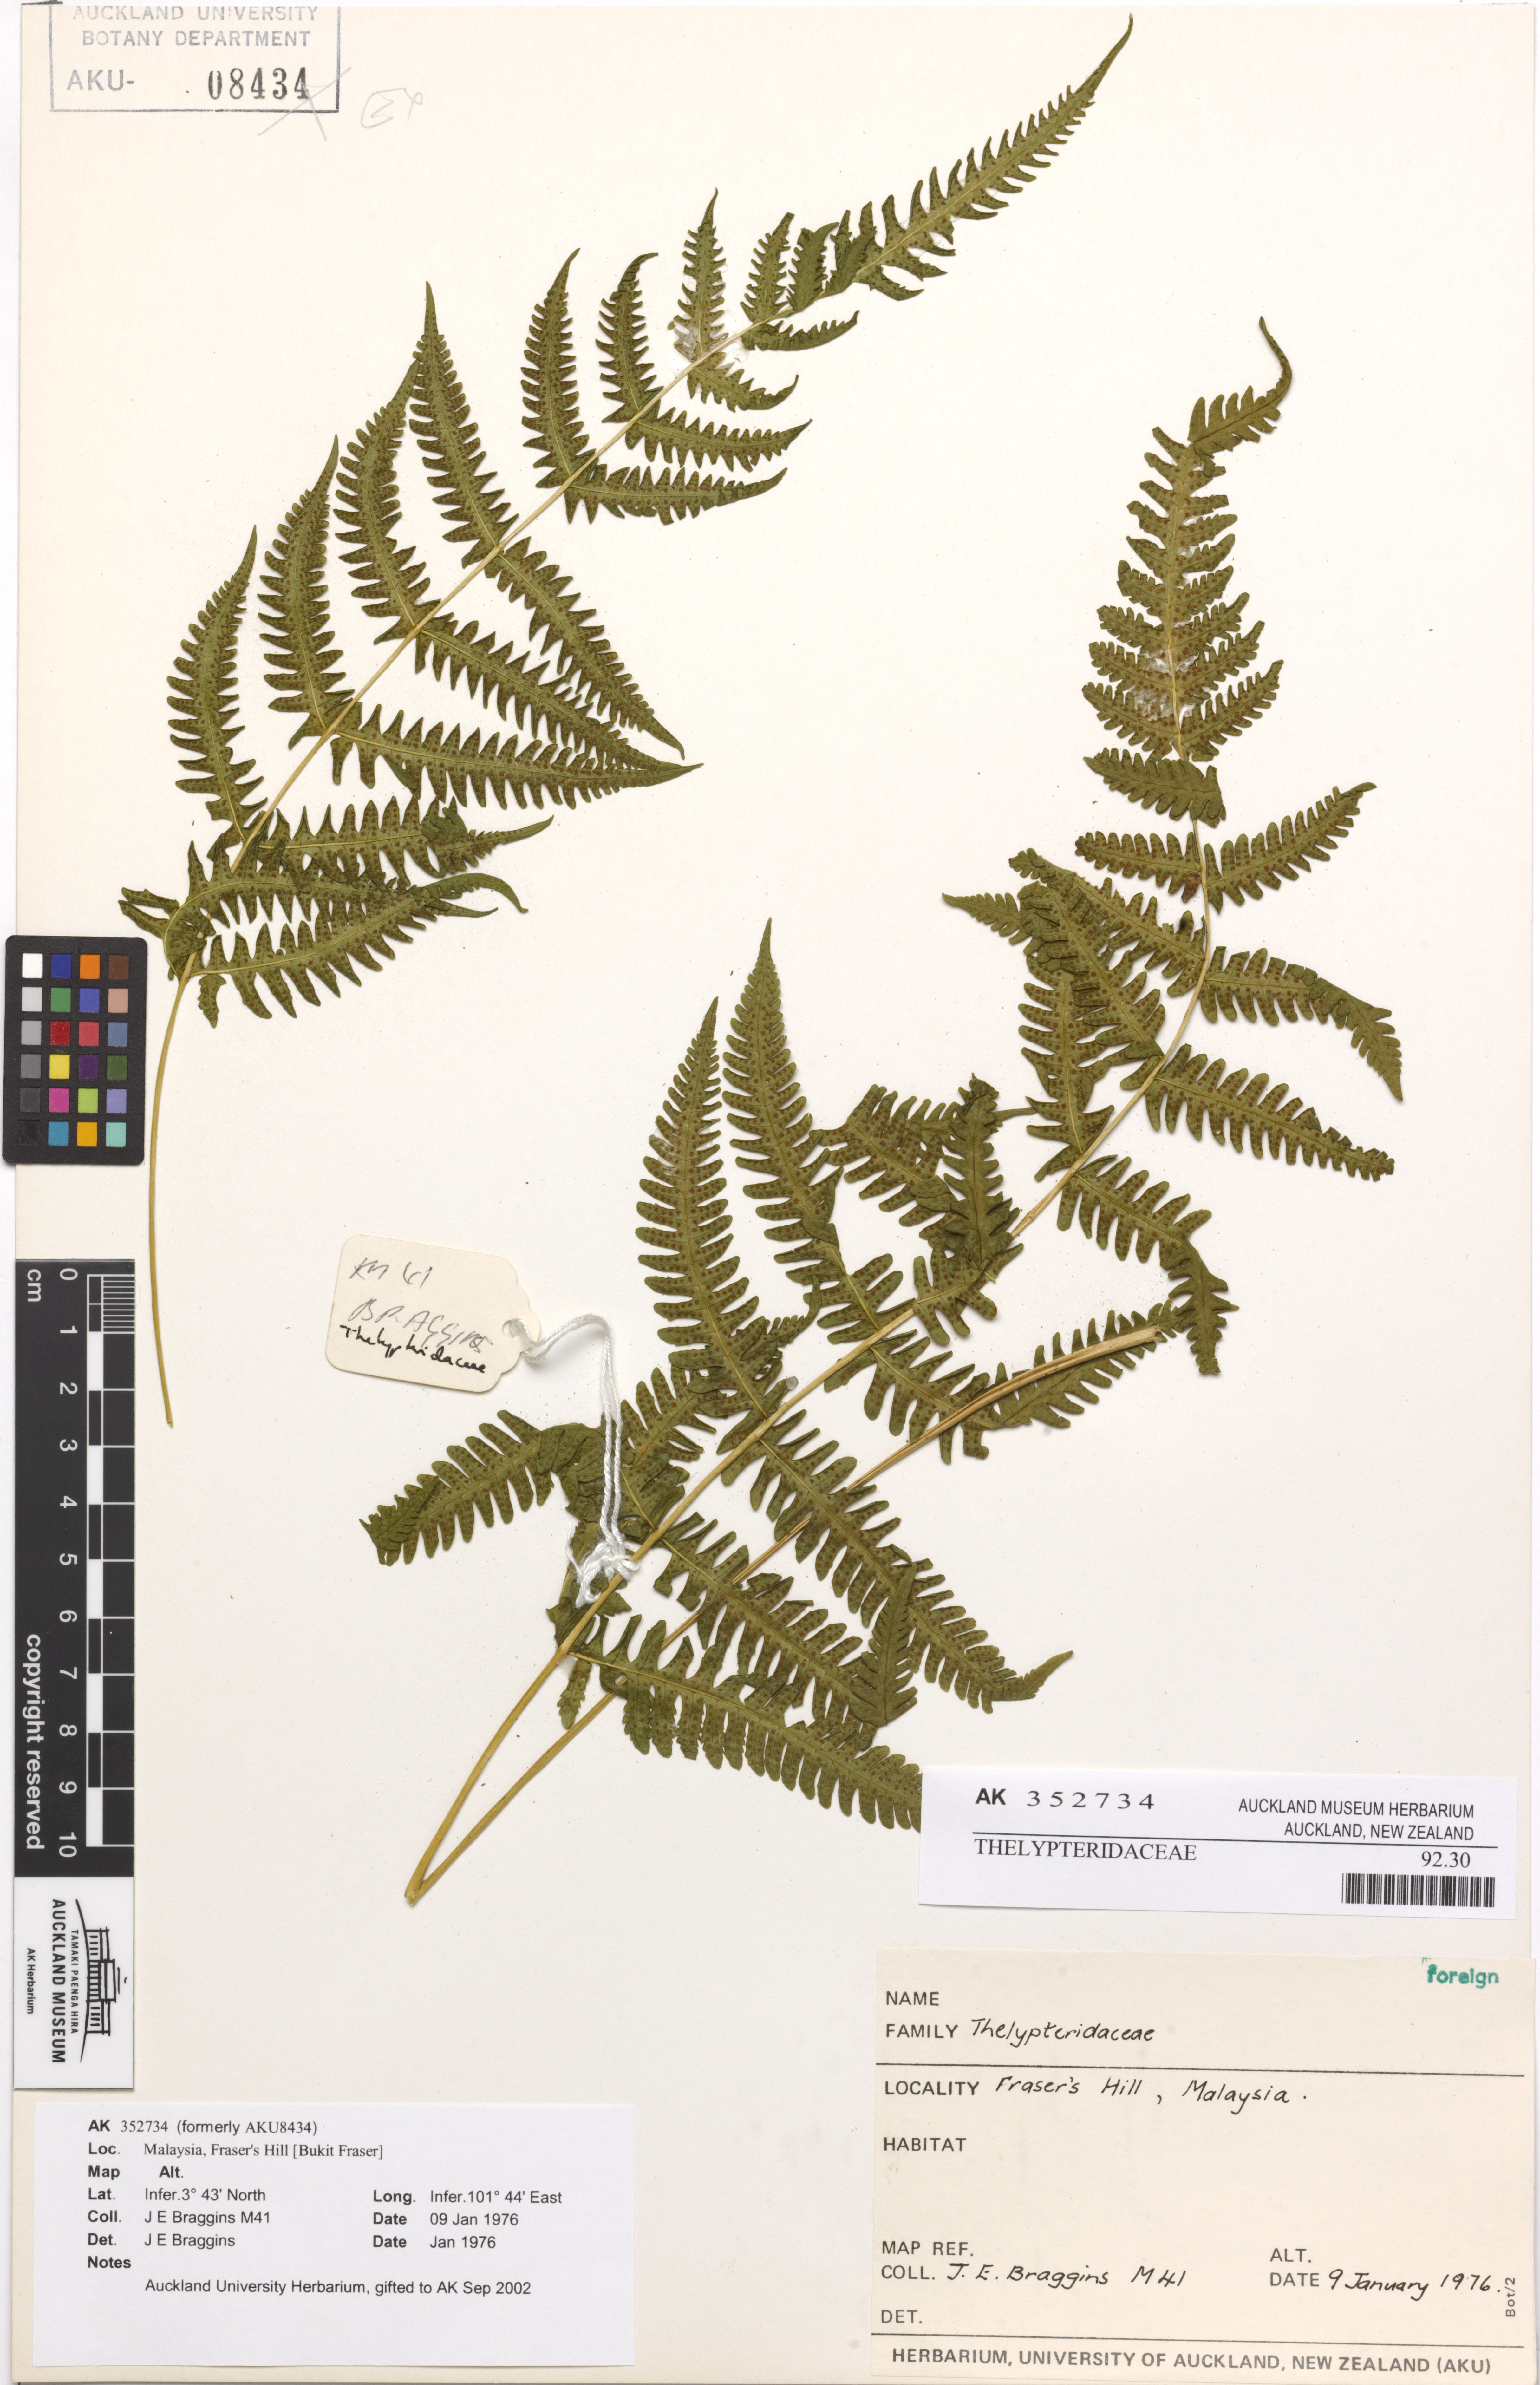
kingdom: Plantae
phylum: Tracheophyta
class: Polypodiopsida
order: Polypodiales
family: Thelypteridaceae
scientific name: Thelypteridaceae
